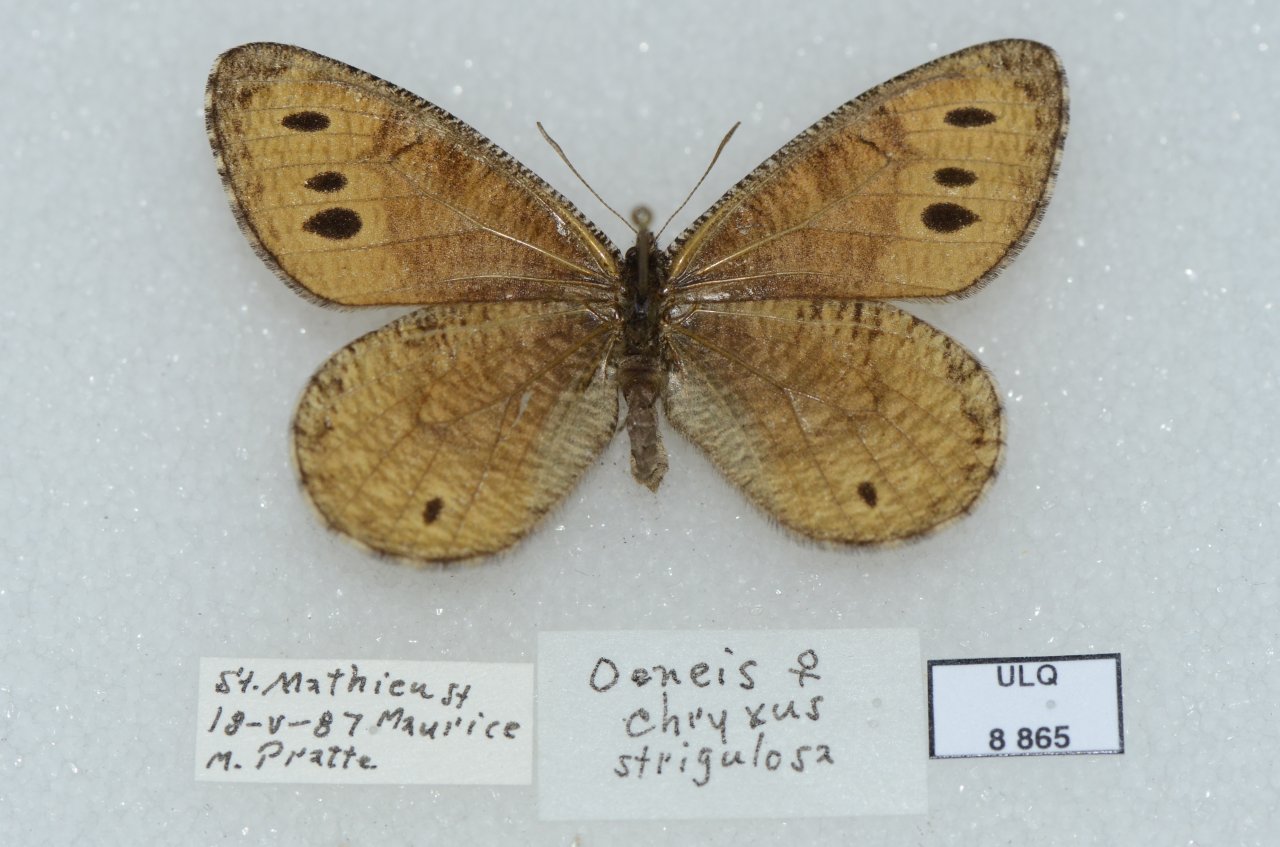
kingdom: Animalia
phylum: Arthropoda
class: Insecta
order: Lepidoptera
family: Nymphalidae
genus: Oeneis
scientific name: Oeneis chryxus
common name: Chryxus Arctic
